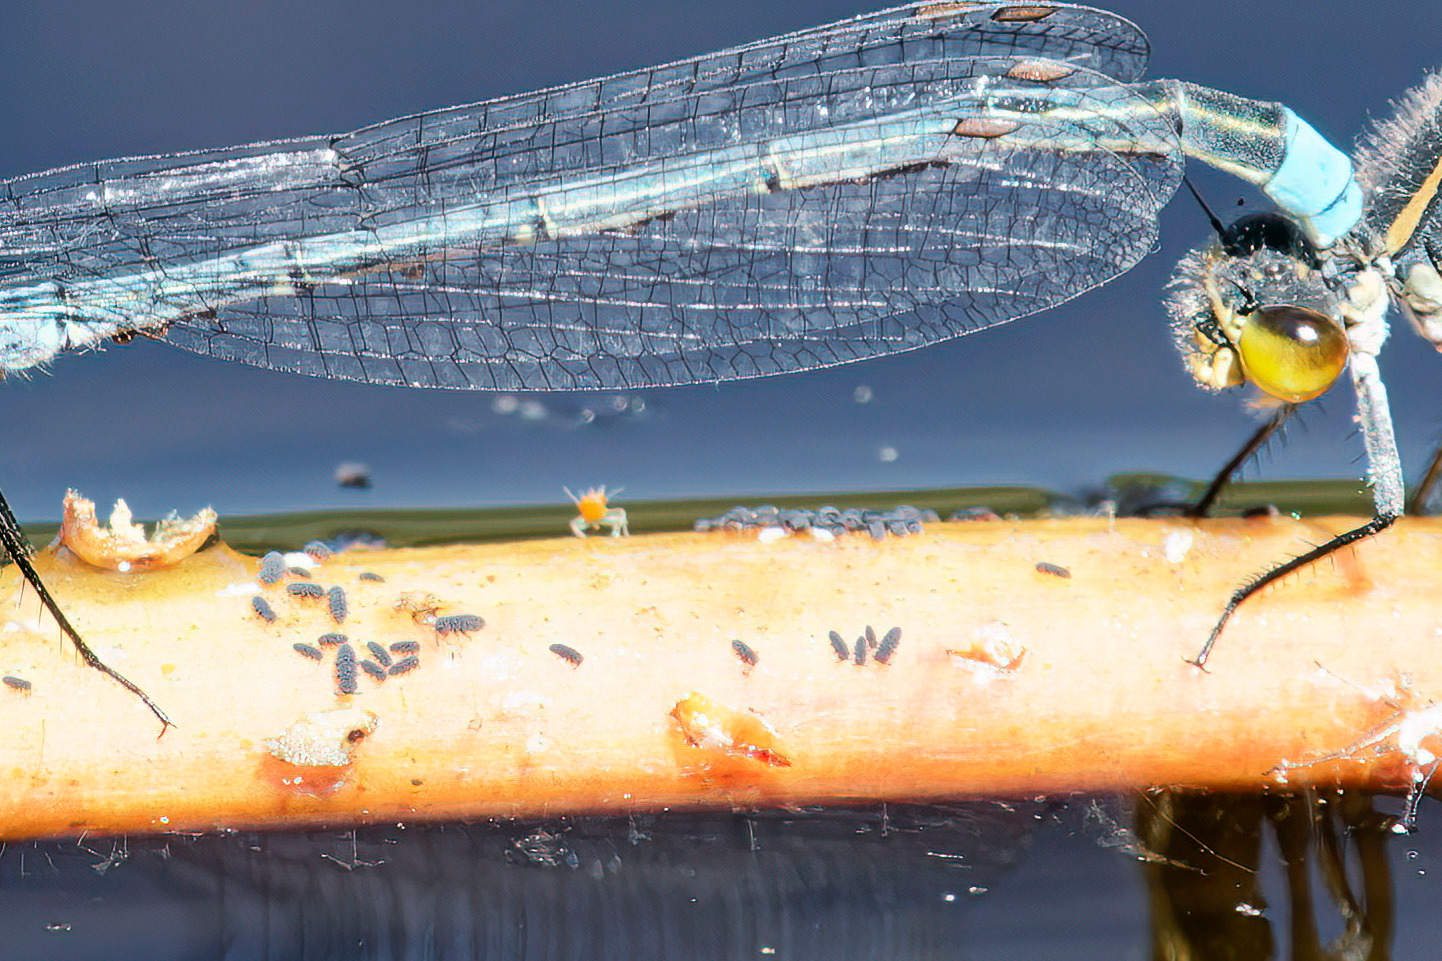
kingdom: Animalia
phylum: Arthropoda
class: Insecta
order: Odonata
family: Coenagrionidae
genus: Erythromma
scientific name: Erythromma najas
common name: Rødøjet vandnymfe
